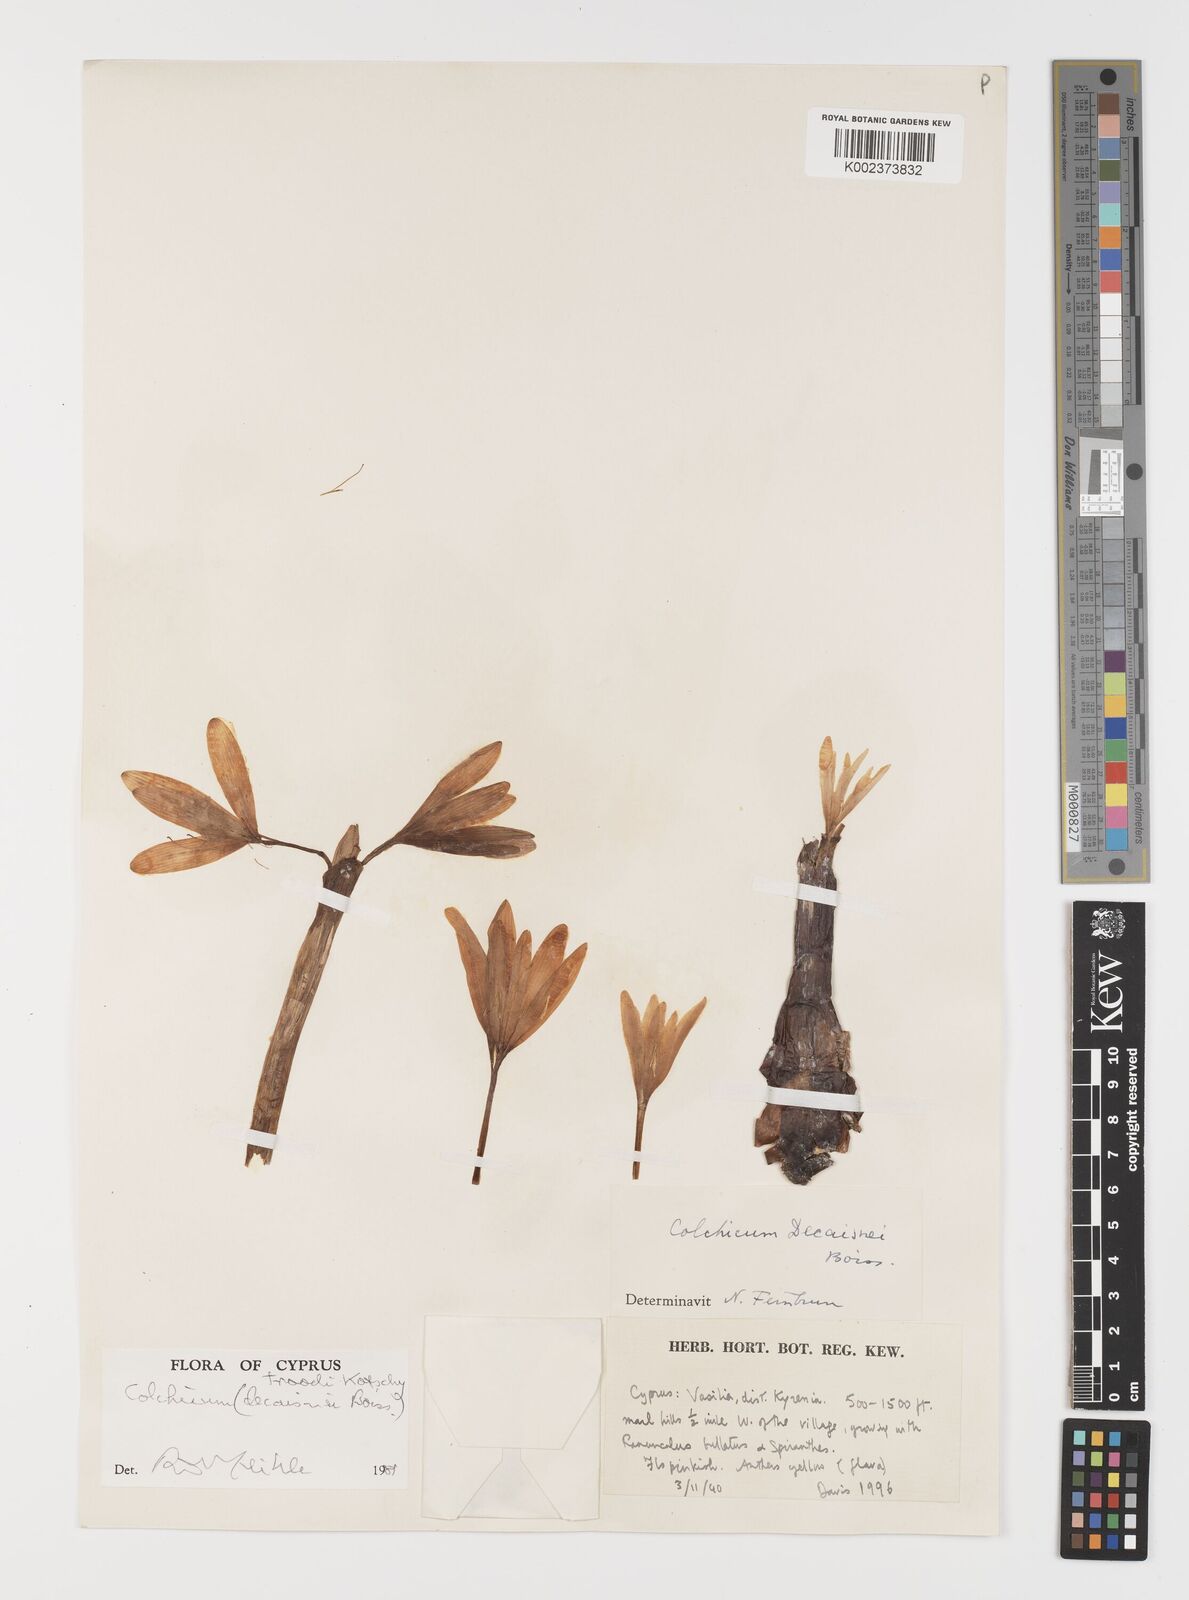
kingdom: Plantae
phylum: Tracheophyta
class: Liliopsida
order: Liliales
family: Colchicaceae
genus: Colchicum
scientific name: Colchicum troodi
